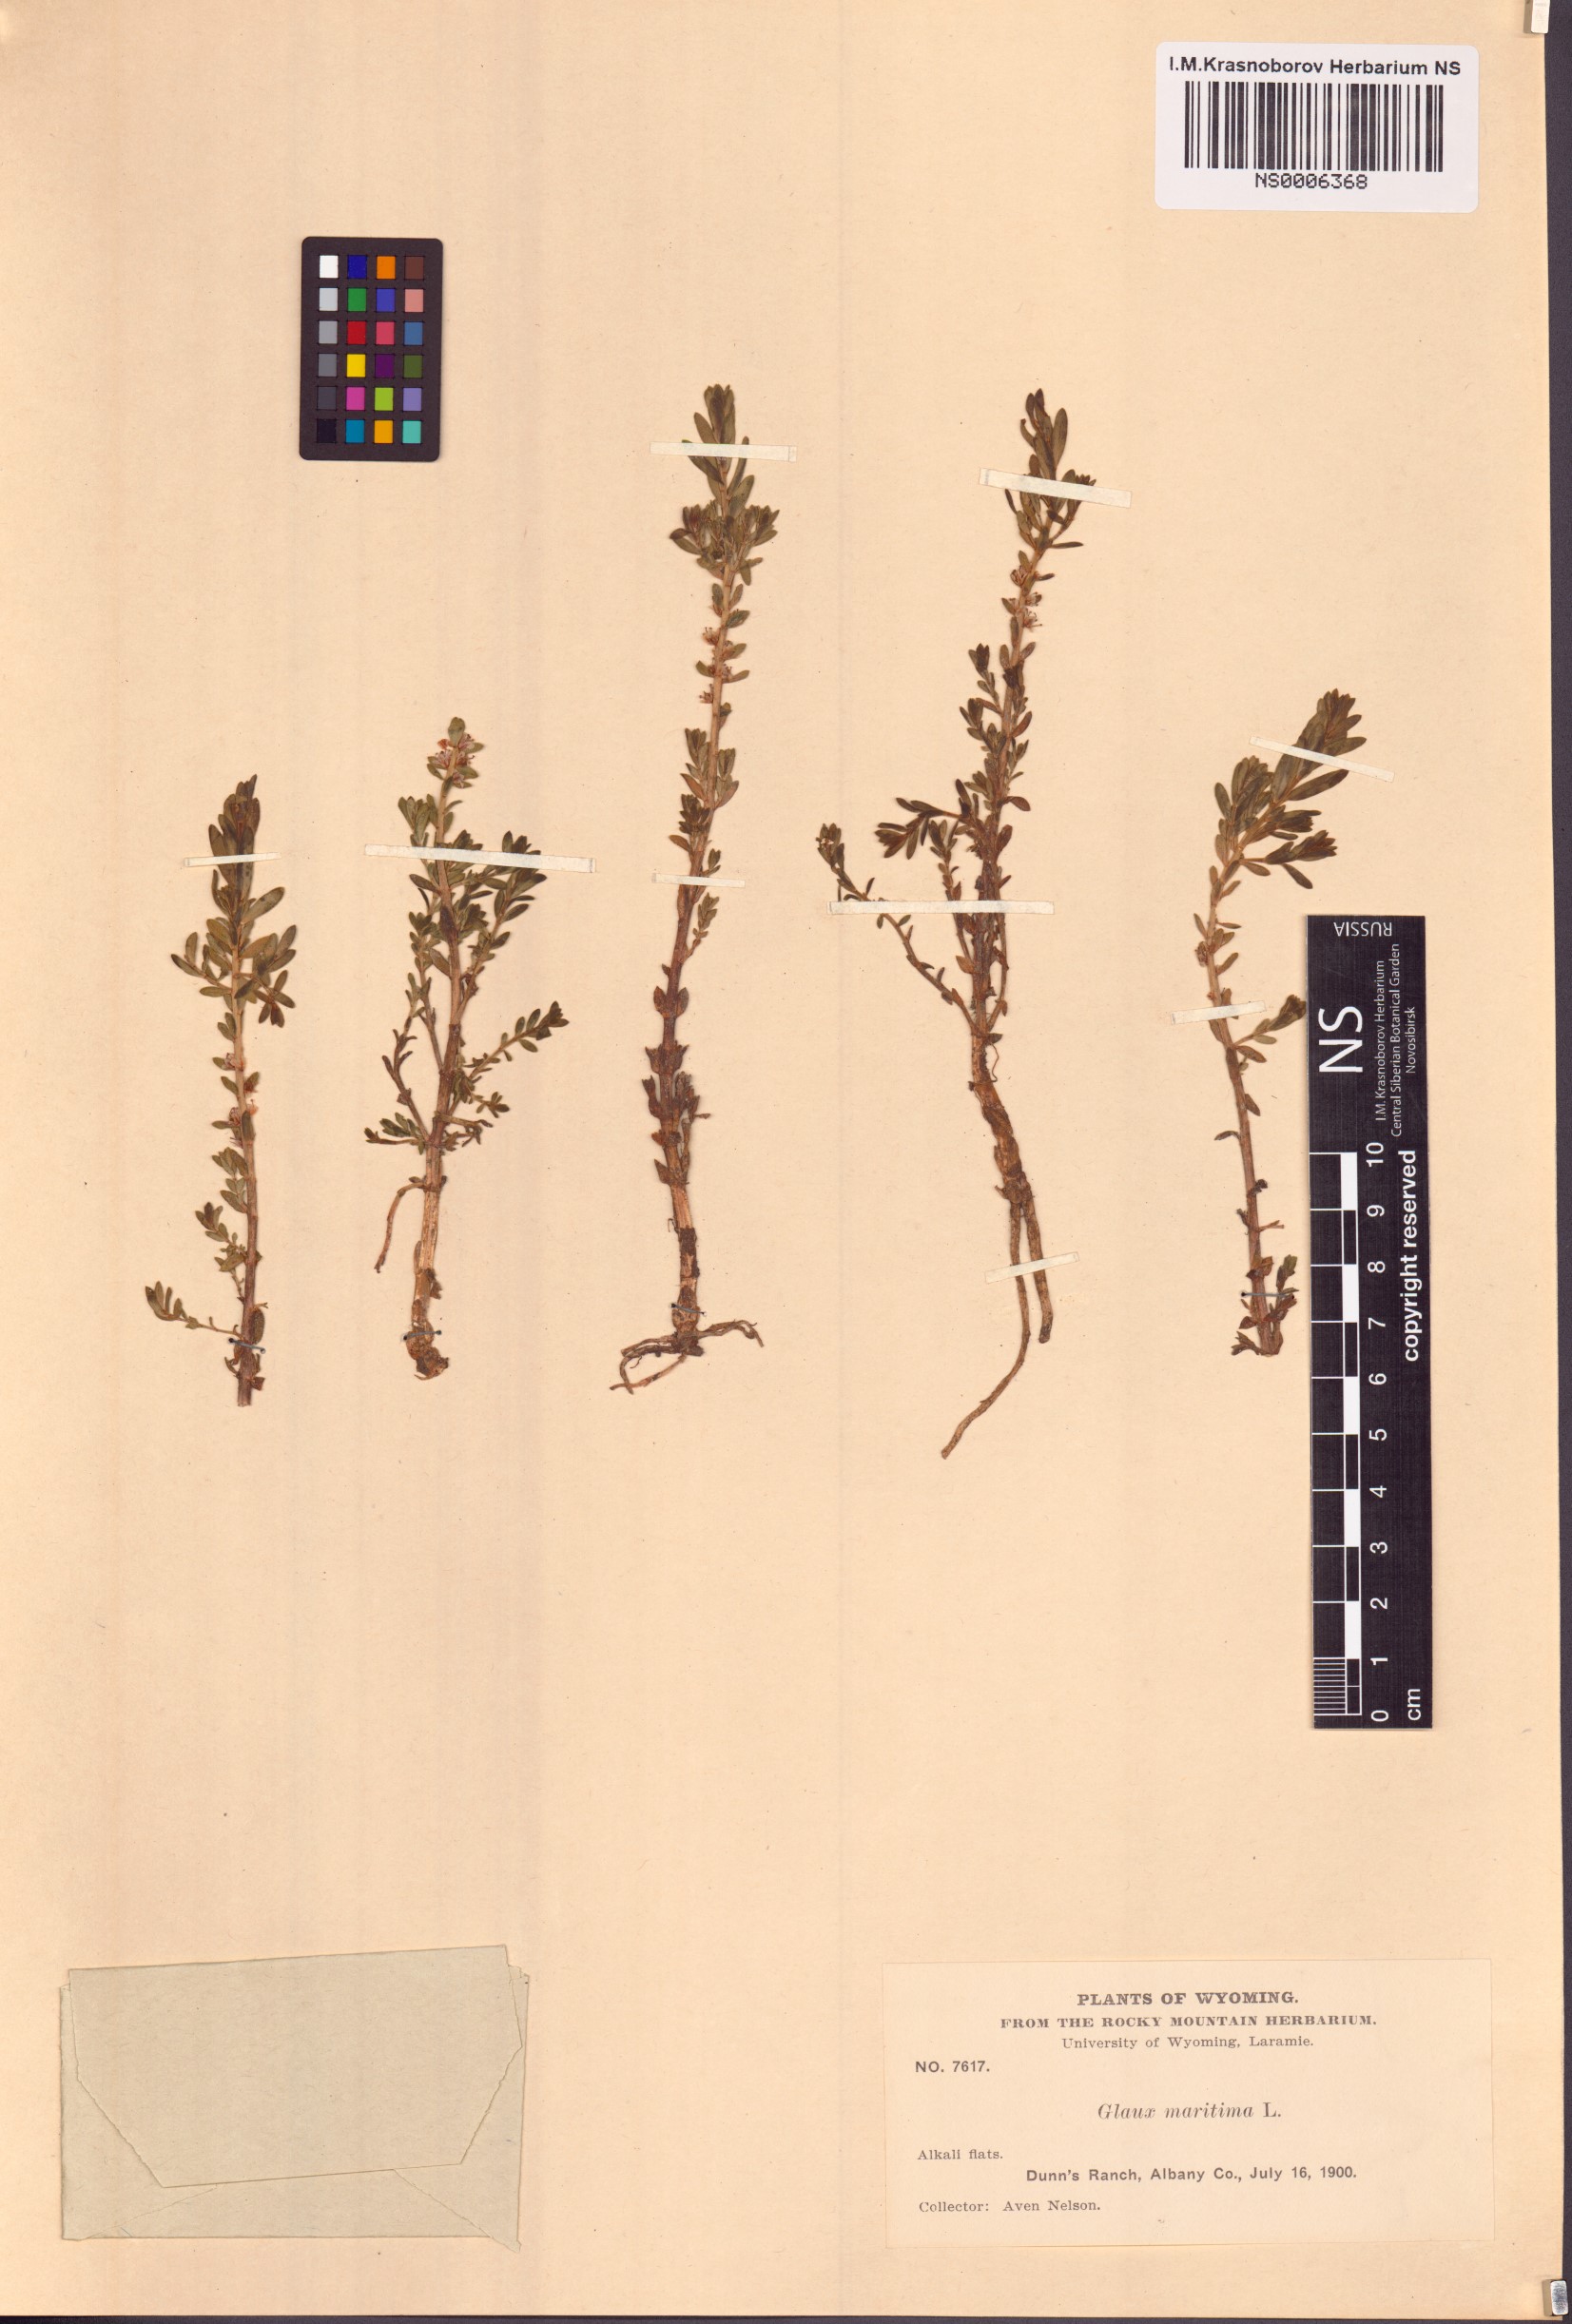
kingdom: Plantae
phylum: Tracheophyta
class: Magnoliopsida
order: Ericales
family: Primulaceae
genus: Lysimachia
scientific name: Lysimachia maritima
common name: Sea milkwort
